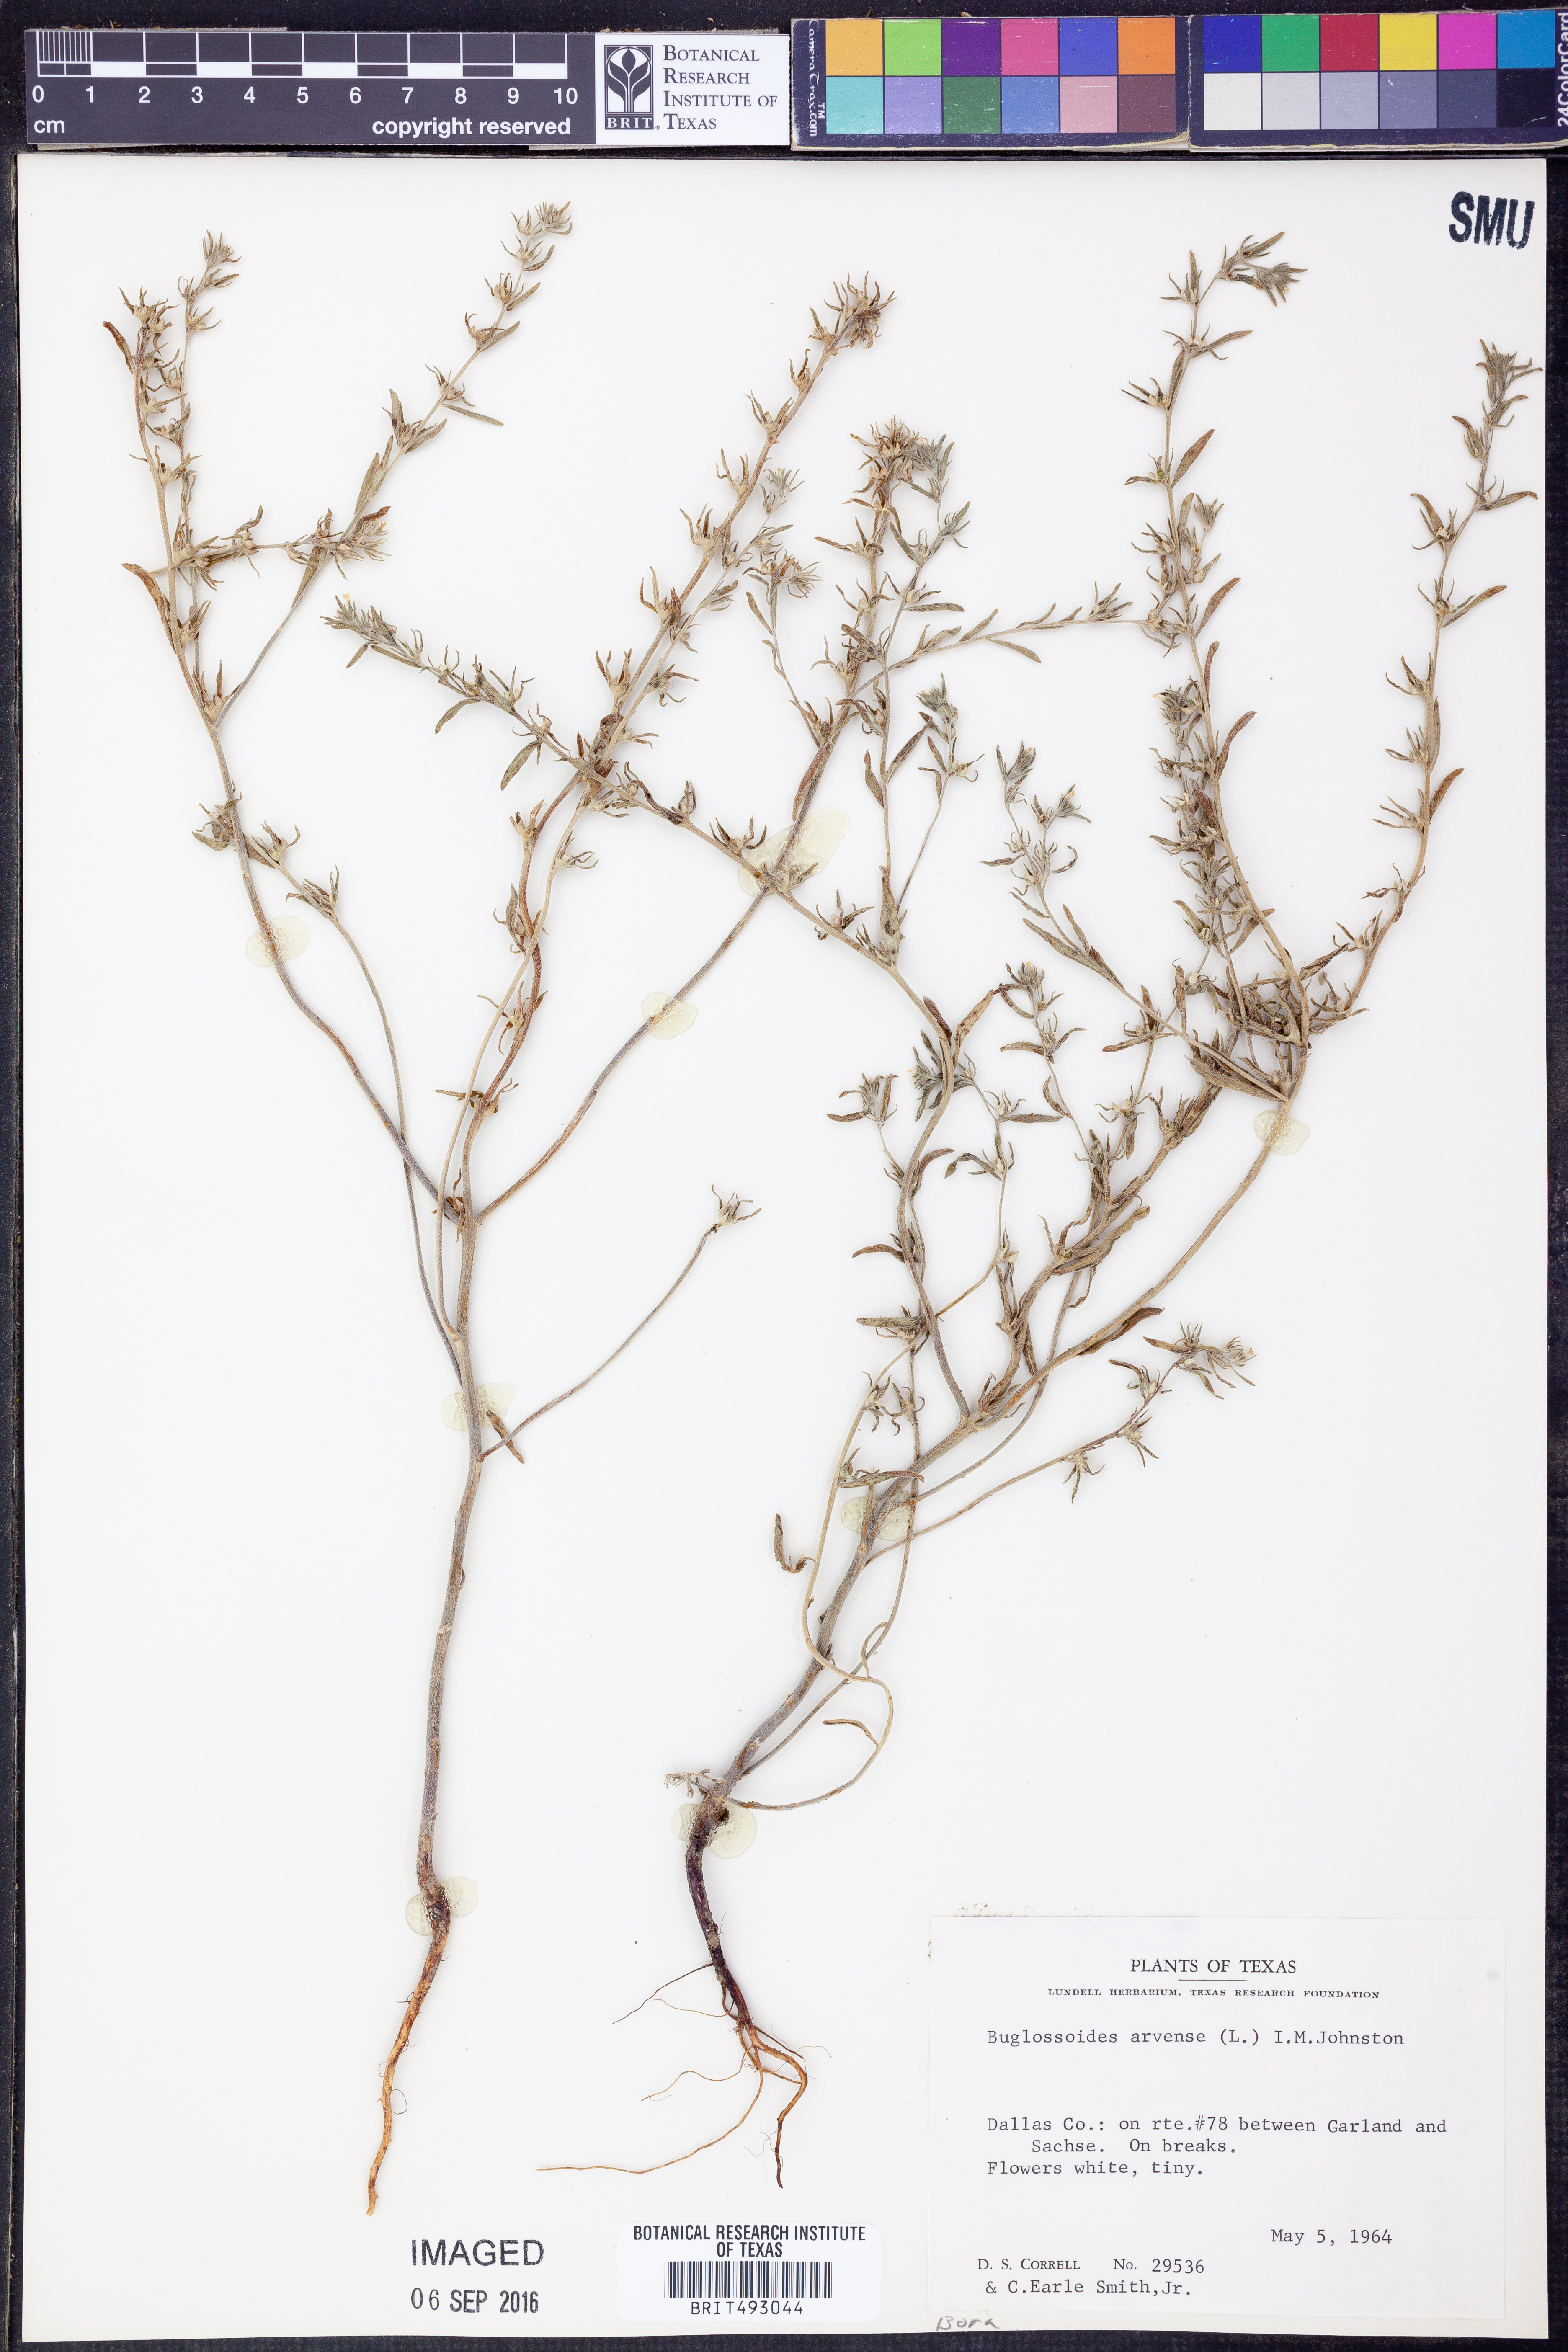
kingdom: Plantae
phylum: Tracheophyta
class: Magnoliopsida
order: Boraginales
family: Boraginaceae
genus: Buglossoides
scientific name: Buglossoides arvensis
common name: Corn gromwell
